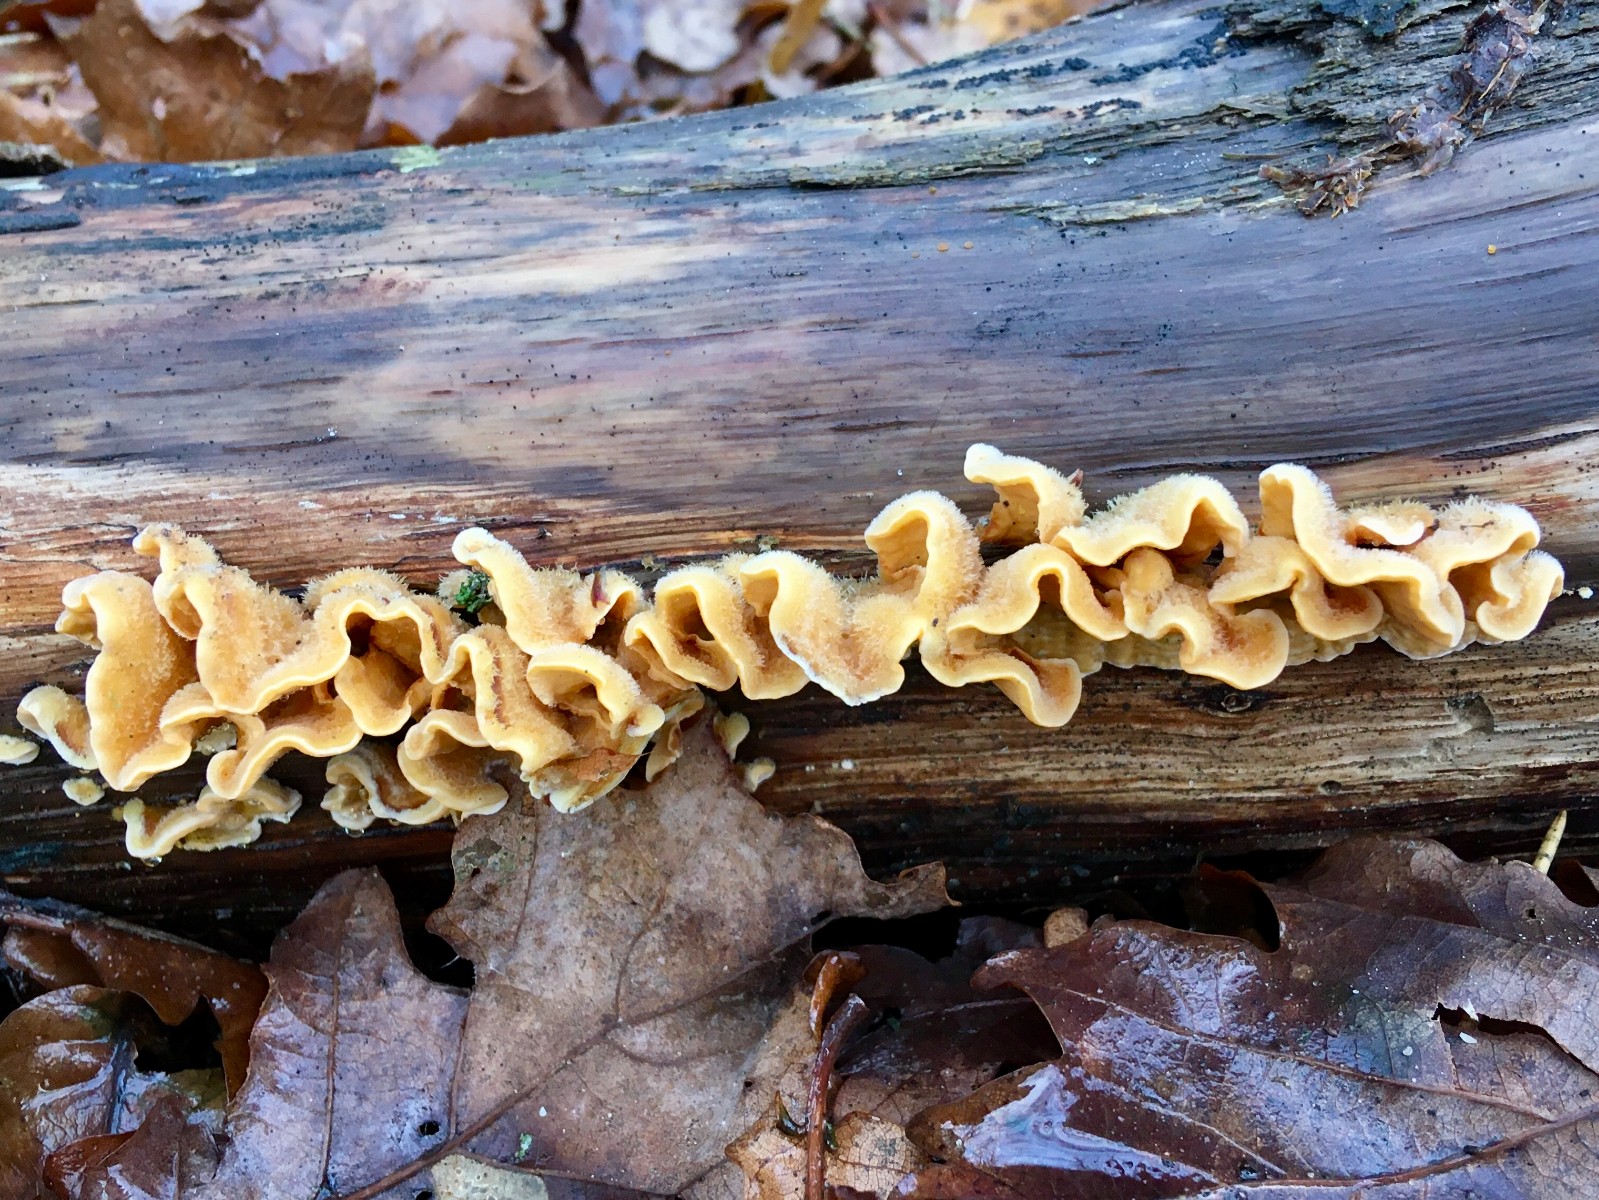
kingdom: Fungi
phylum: Basidiomycota
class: Agaricomycetes
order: Russulales
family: Stereaceae
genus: Stereum
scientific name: Stereum hirsutum
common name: håret lædersvamp
